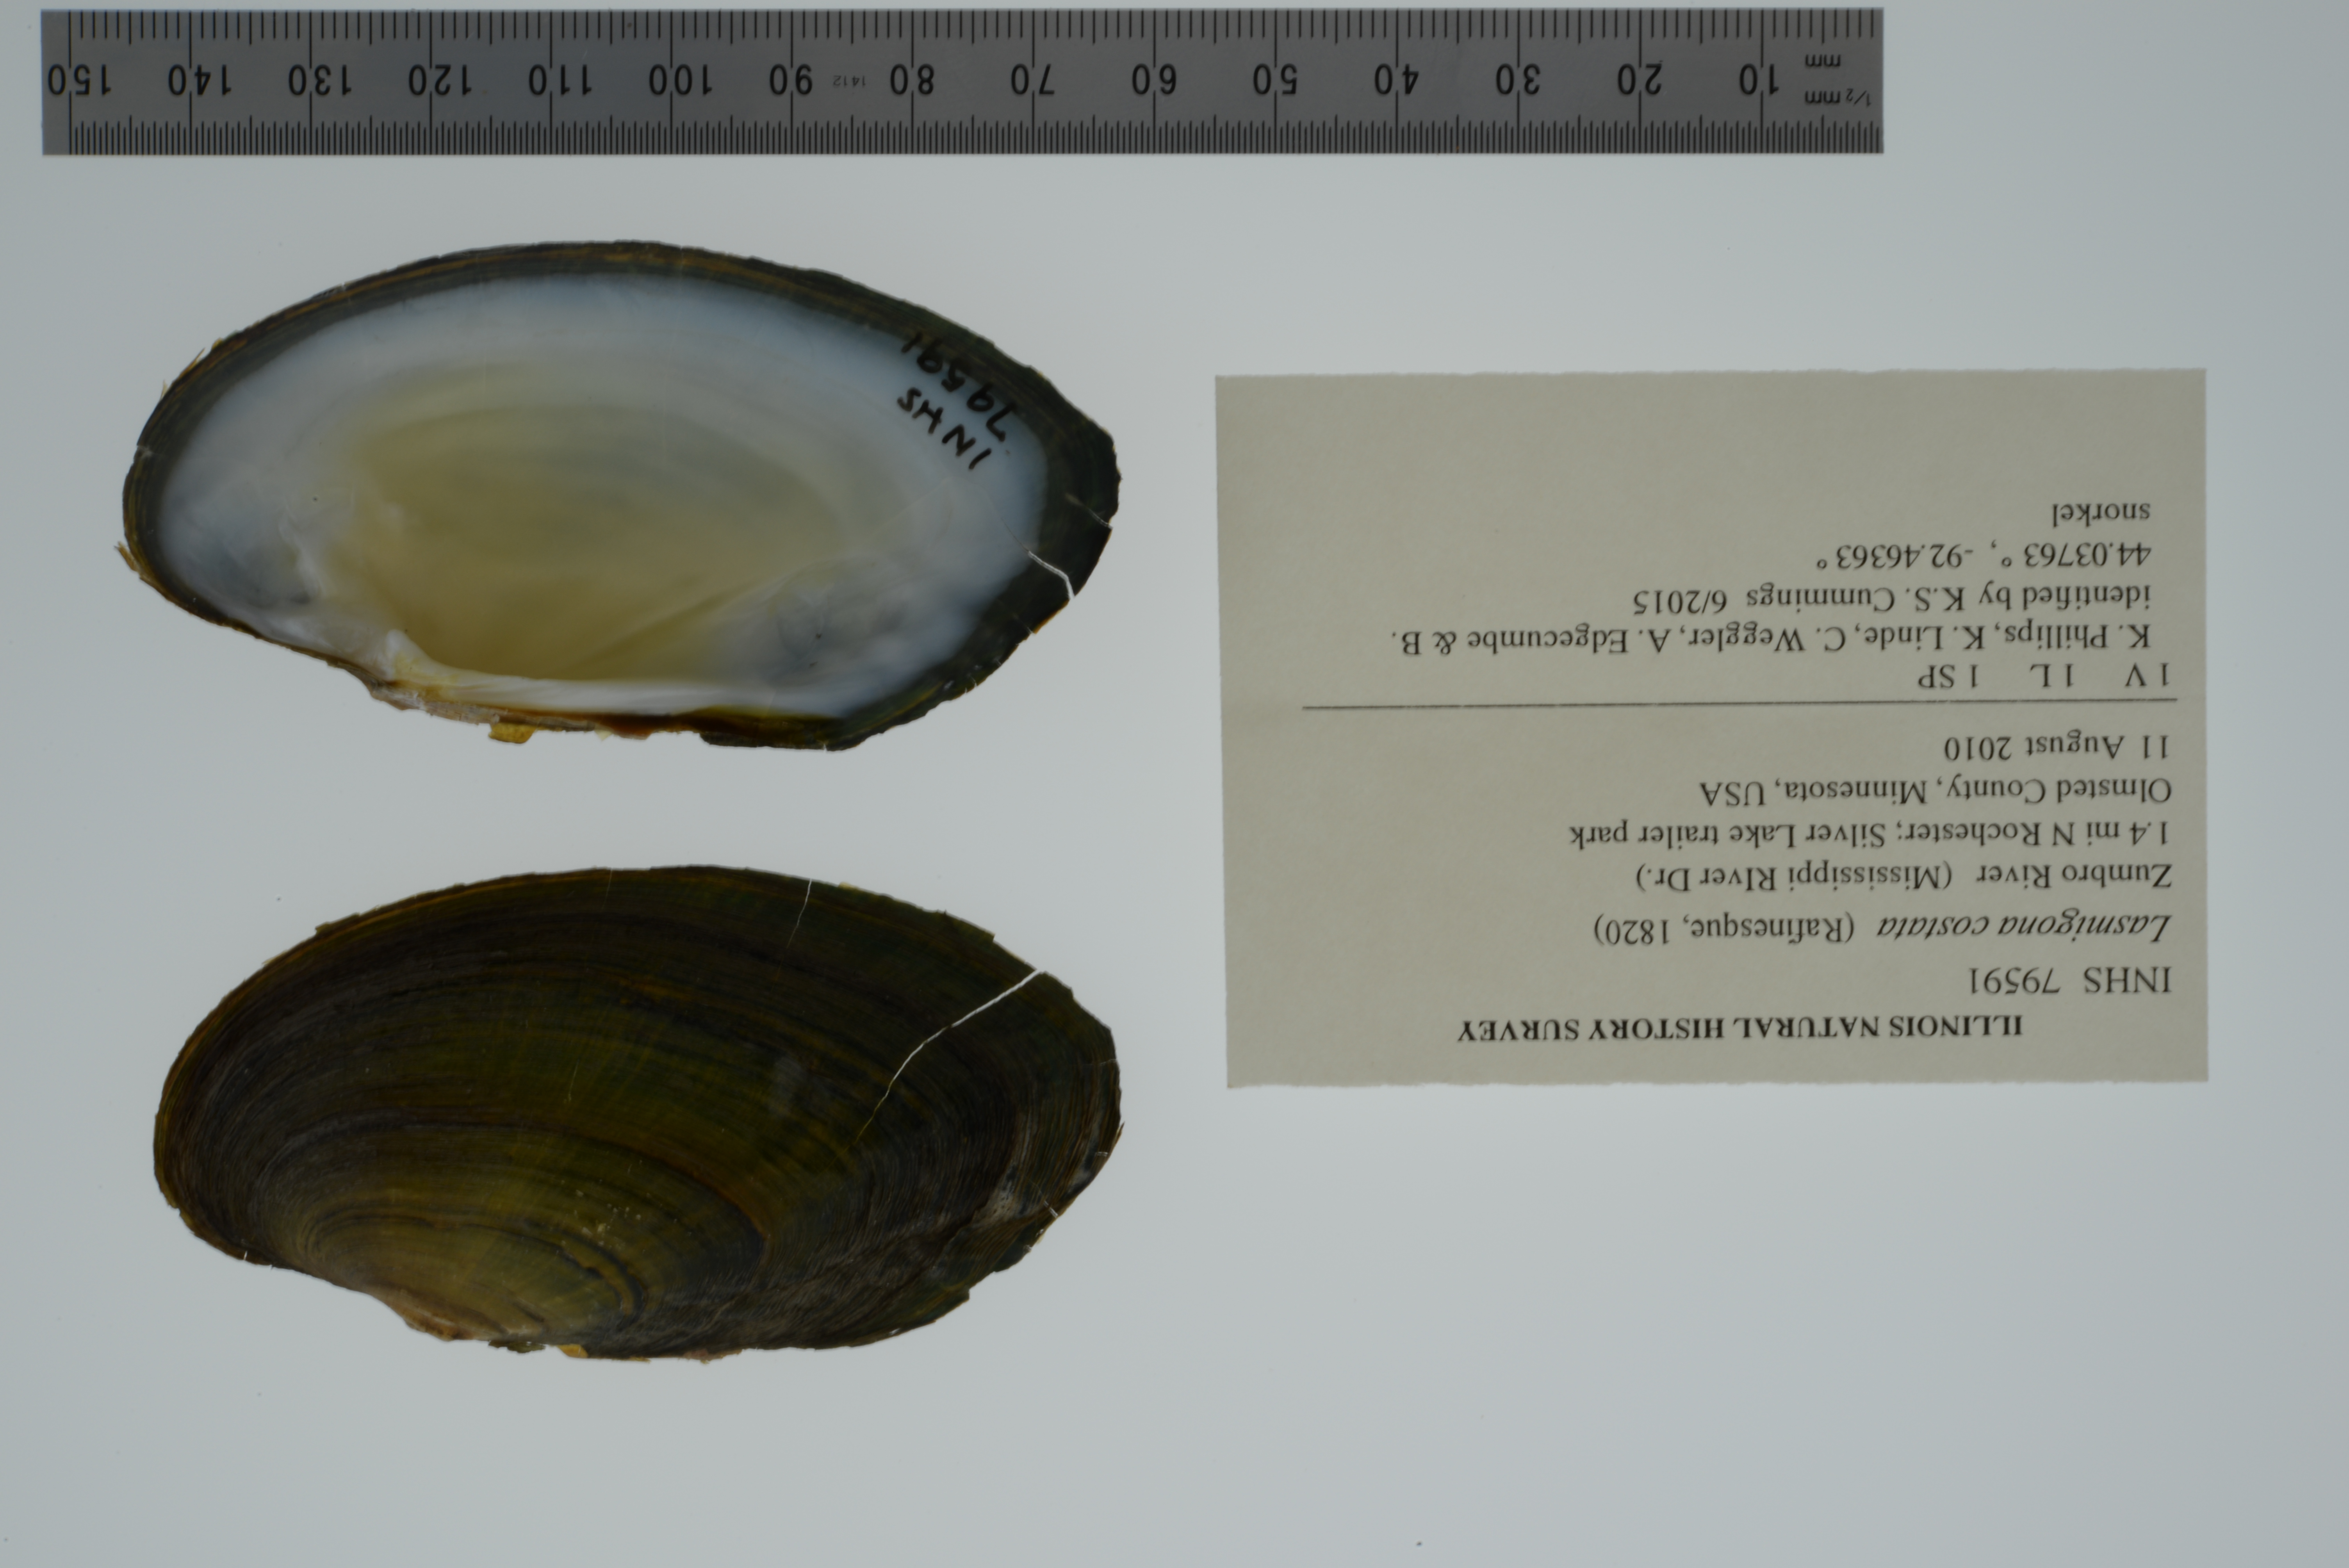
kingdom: Animalia
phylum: Mollusca
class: Bivalvia
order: Unionida
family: Unionidae
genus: Lasmigona
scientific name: Lasmigona costata
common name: Flutedshell
